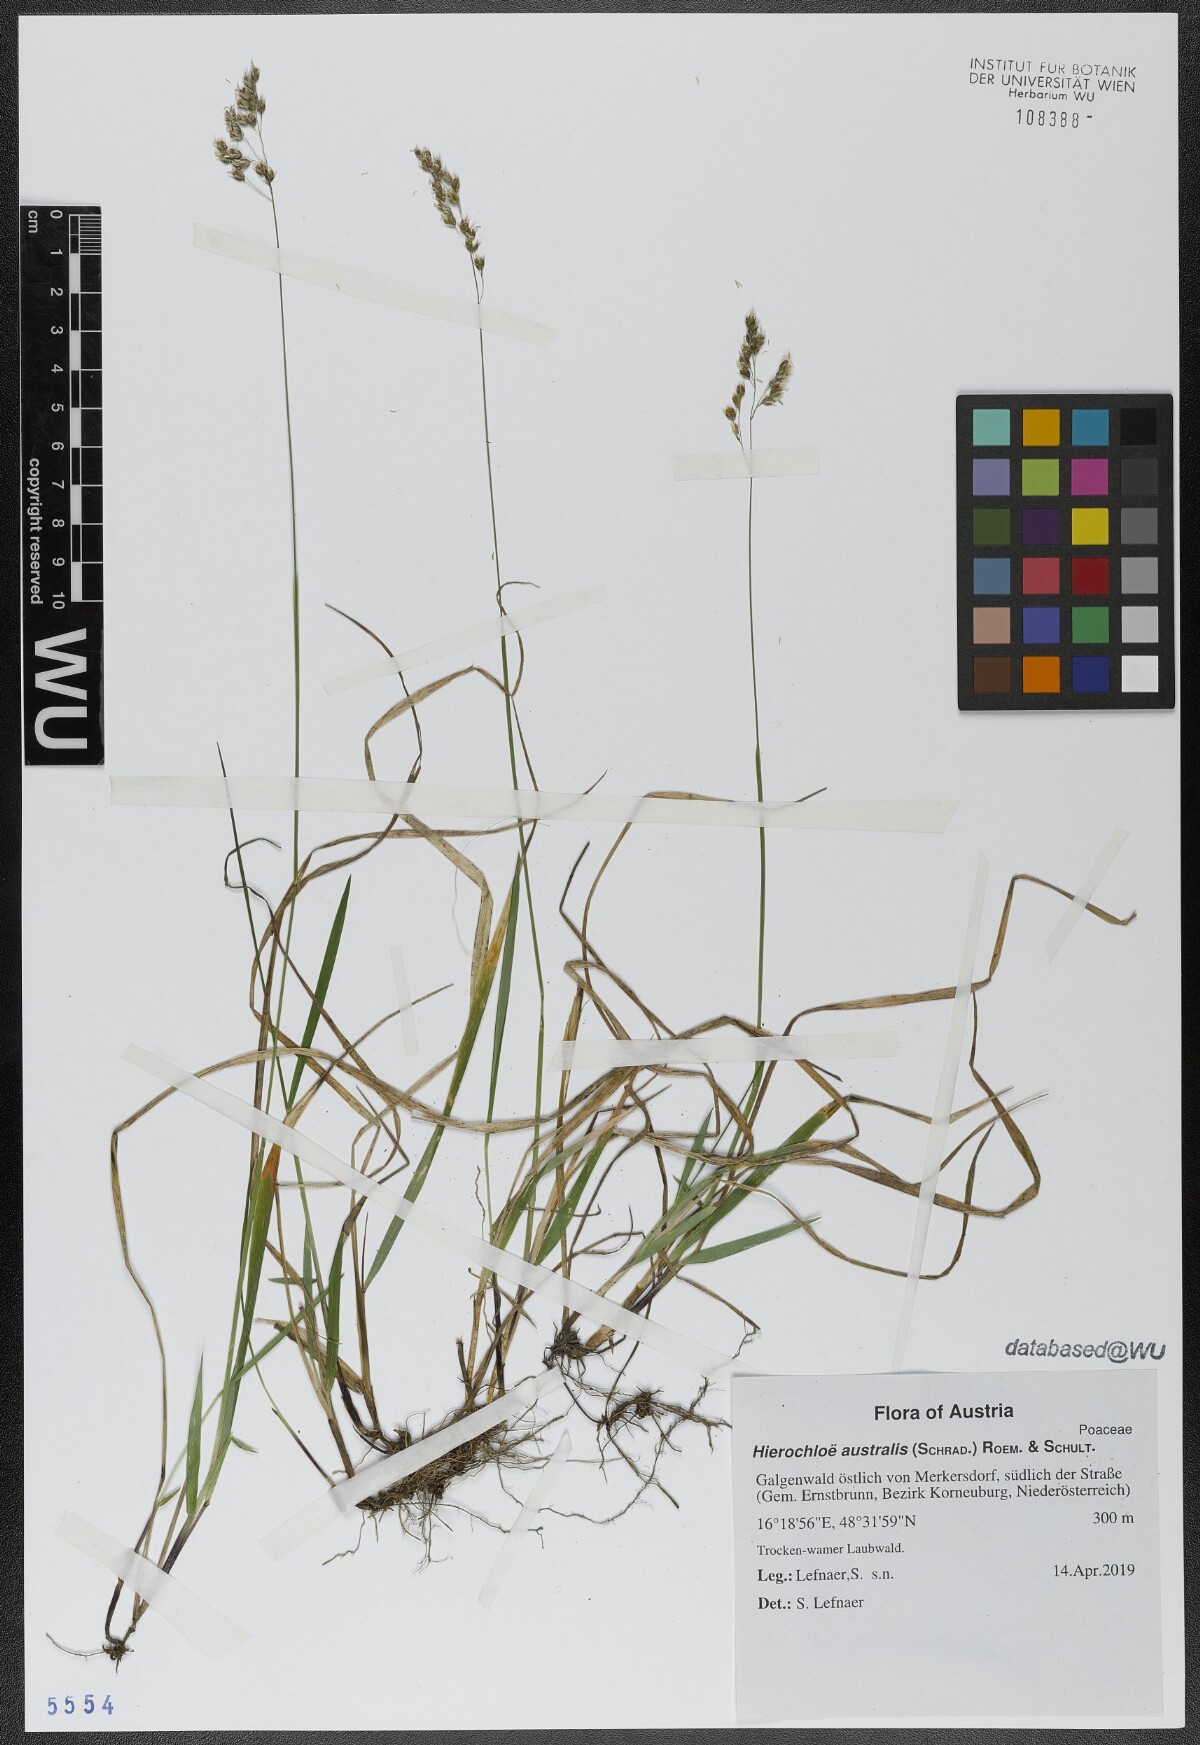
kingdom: Plantae
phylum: Tracheophyta
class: Liliopsida
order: Poales
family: Poaceae
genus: Anthoxanthum
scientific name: Anthoxanthum australe
